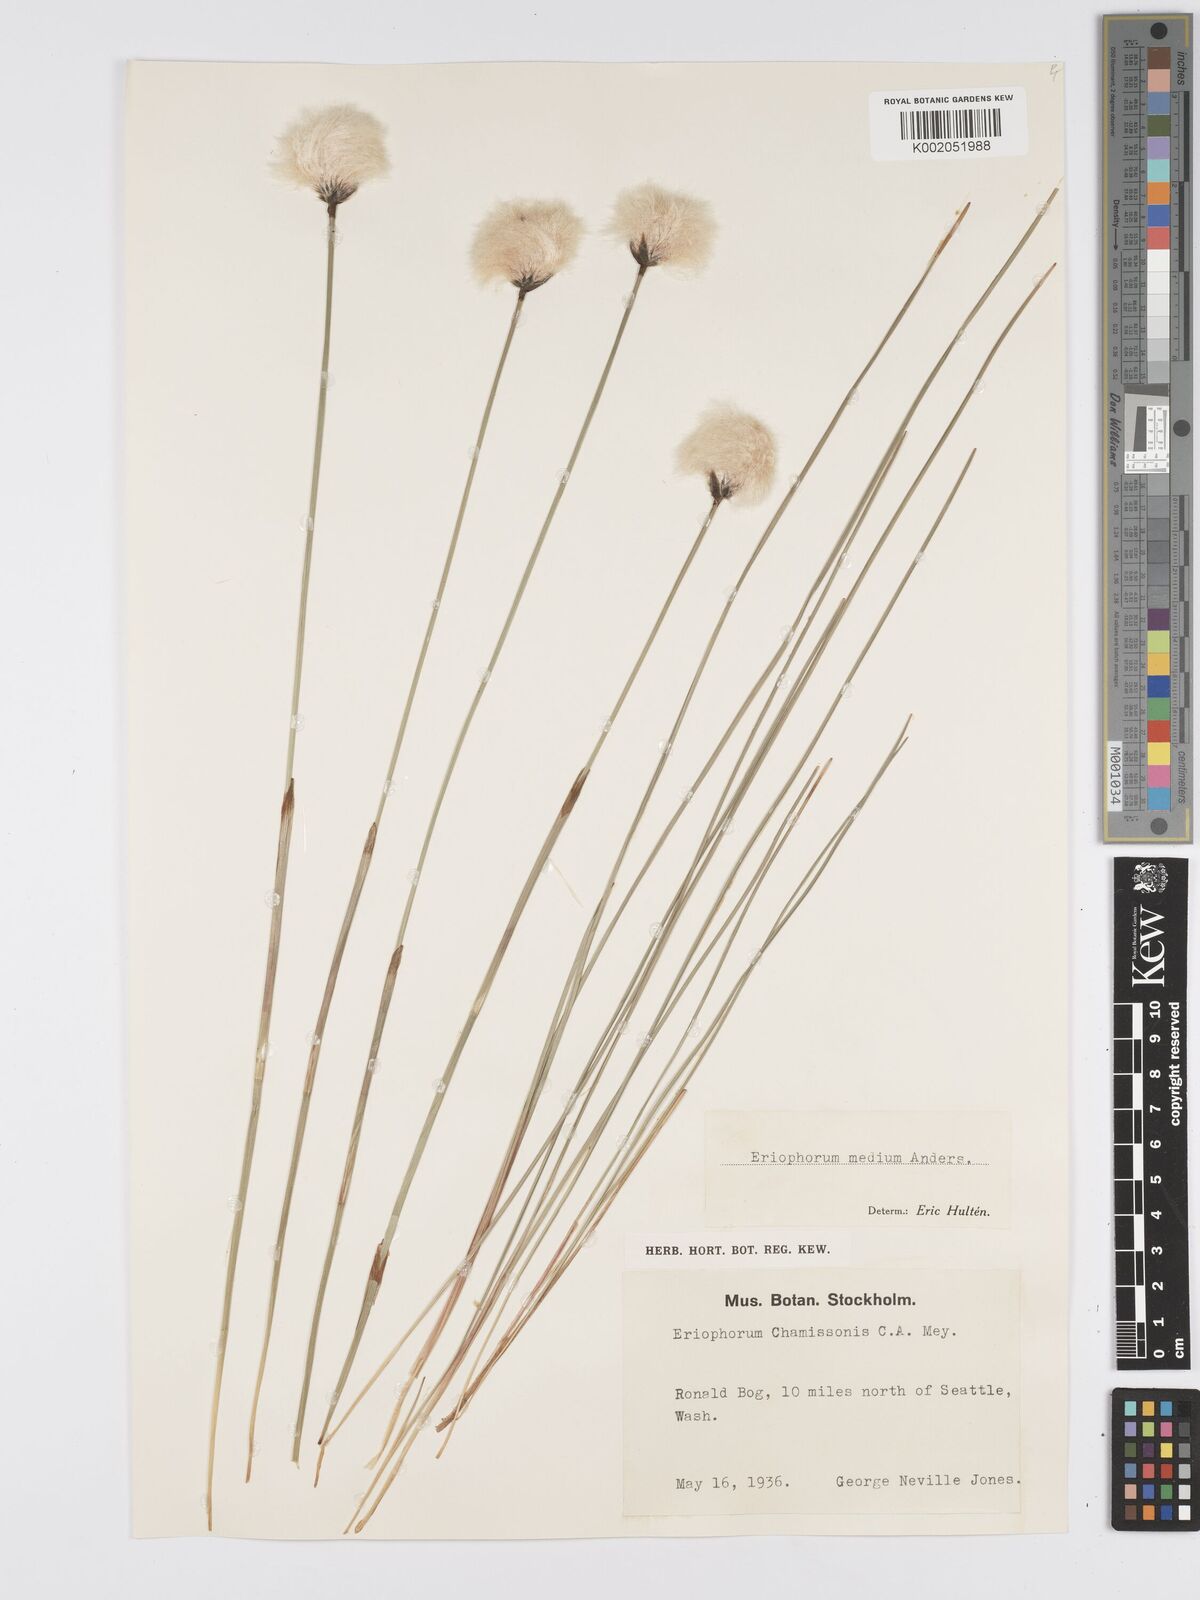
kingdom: Plantae
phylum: Tracheophyta
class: Liliopsida
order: Poales
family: Cyperaceae
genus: Eriophorum
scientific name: Eriophorum callitrix
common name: Arctic cottongrass
